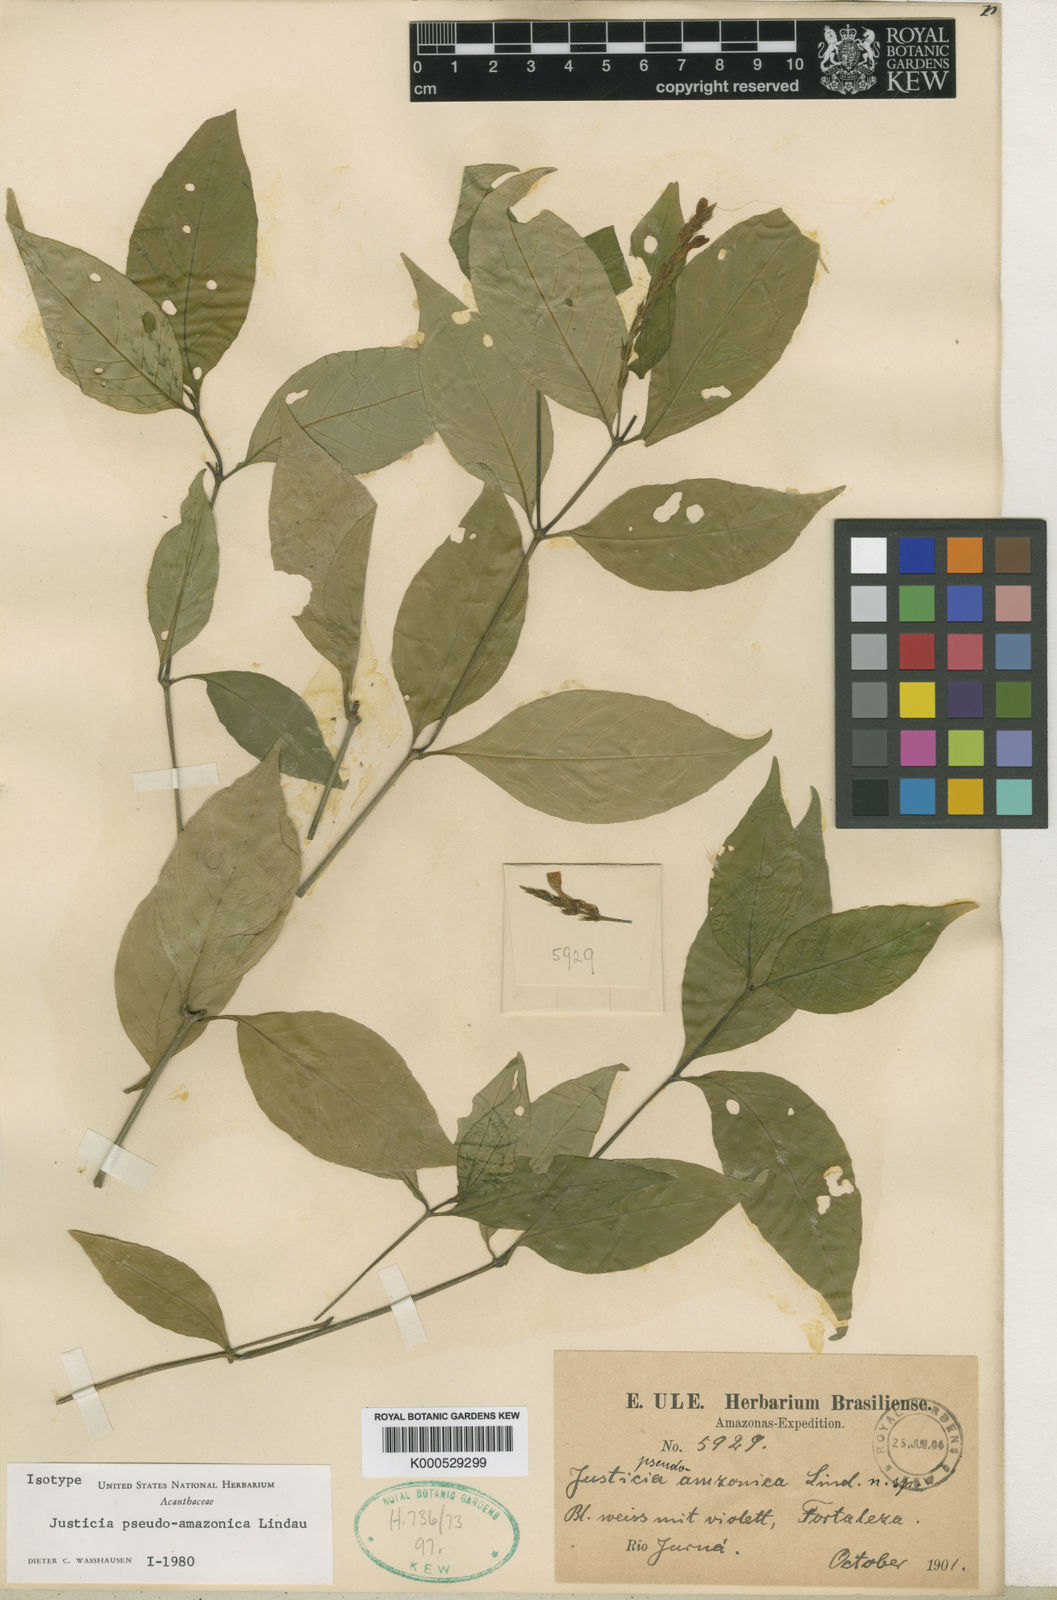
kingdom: Plantae
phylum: Tracheophyta
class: Magnoliopsida
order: Lamiales
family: Acanthaceae
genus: Justicia
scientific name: Justicia pseudoamazonica
